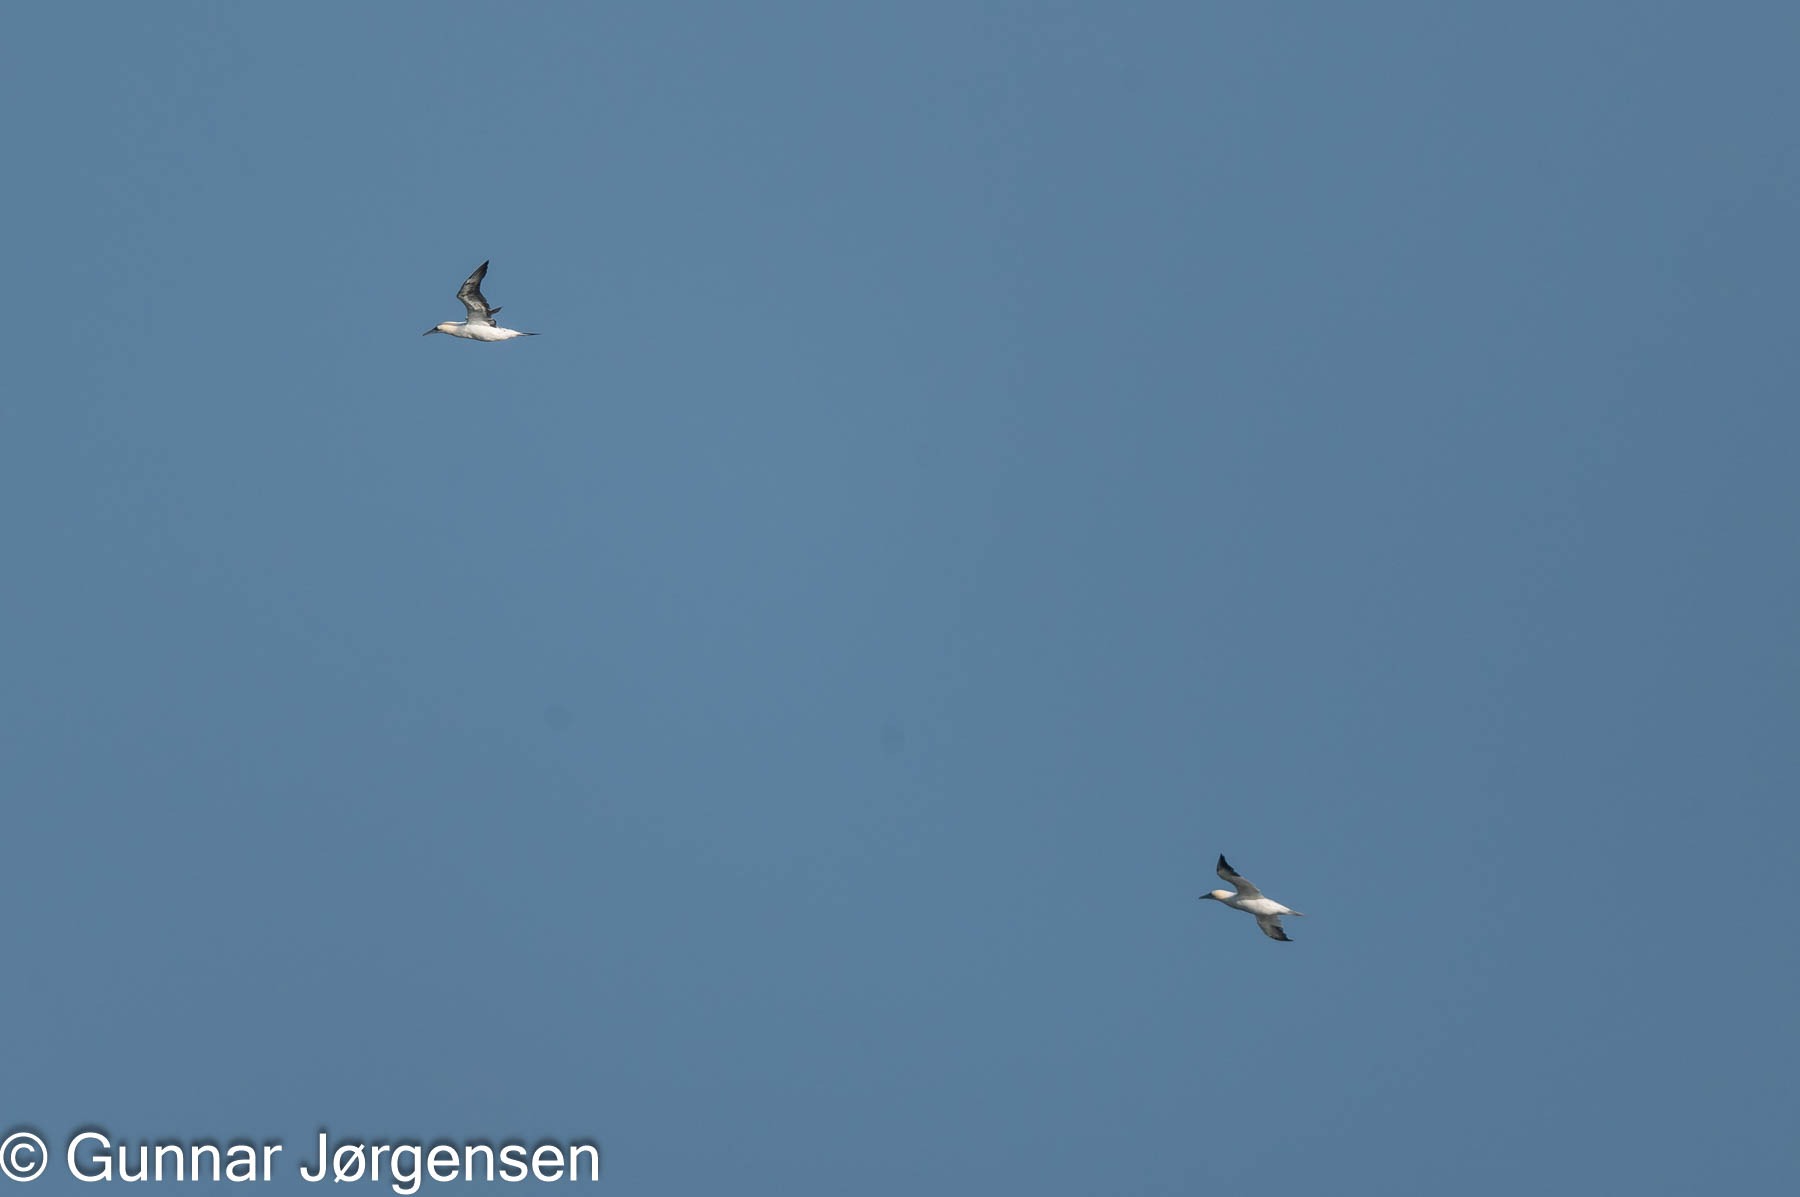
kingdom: Animalia
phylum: Chordata
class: Aves
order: Suliformes
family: Sulidae
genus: Morus
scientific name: Morus bassanus
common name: Sule
